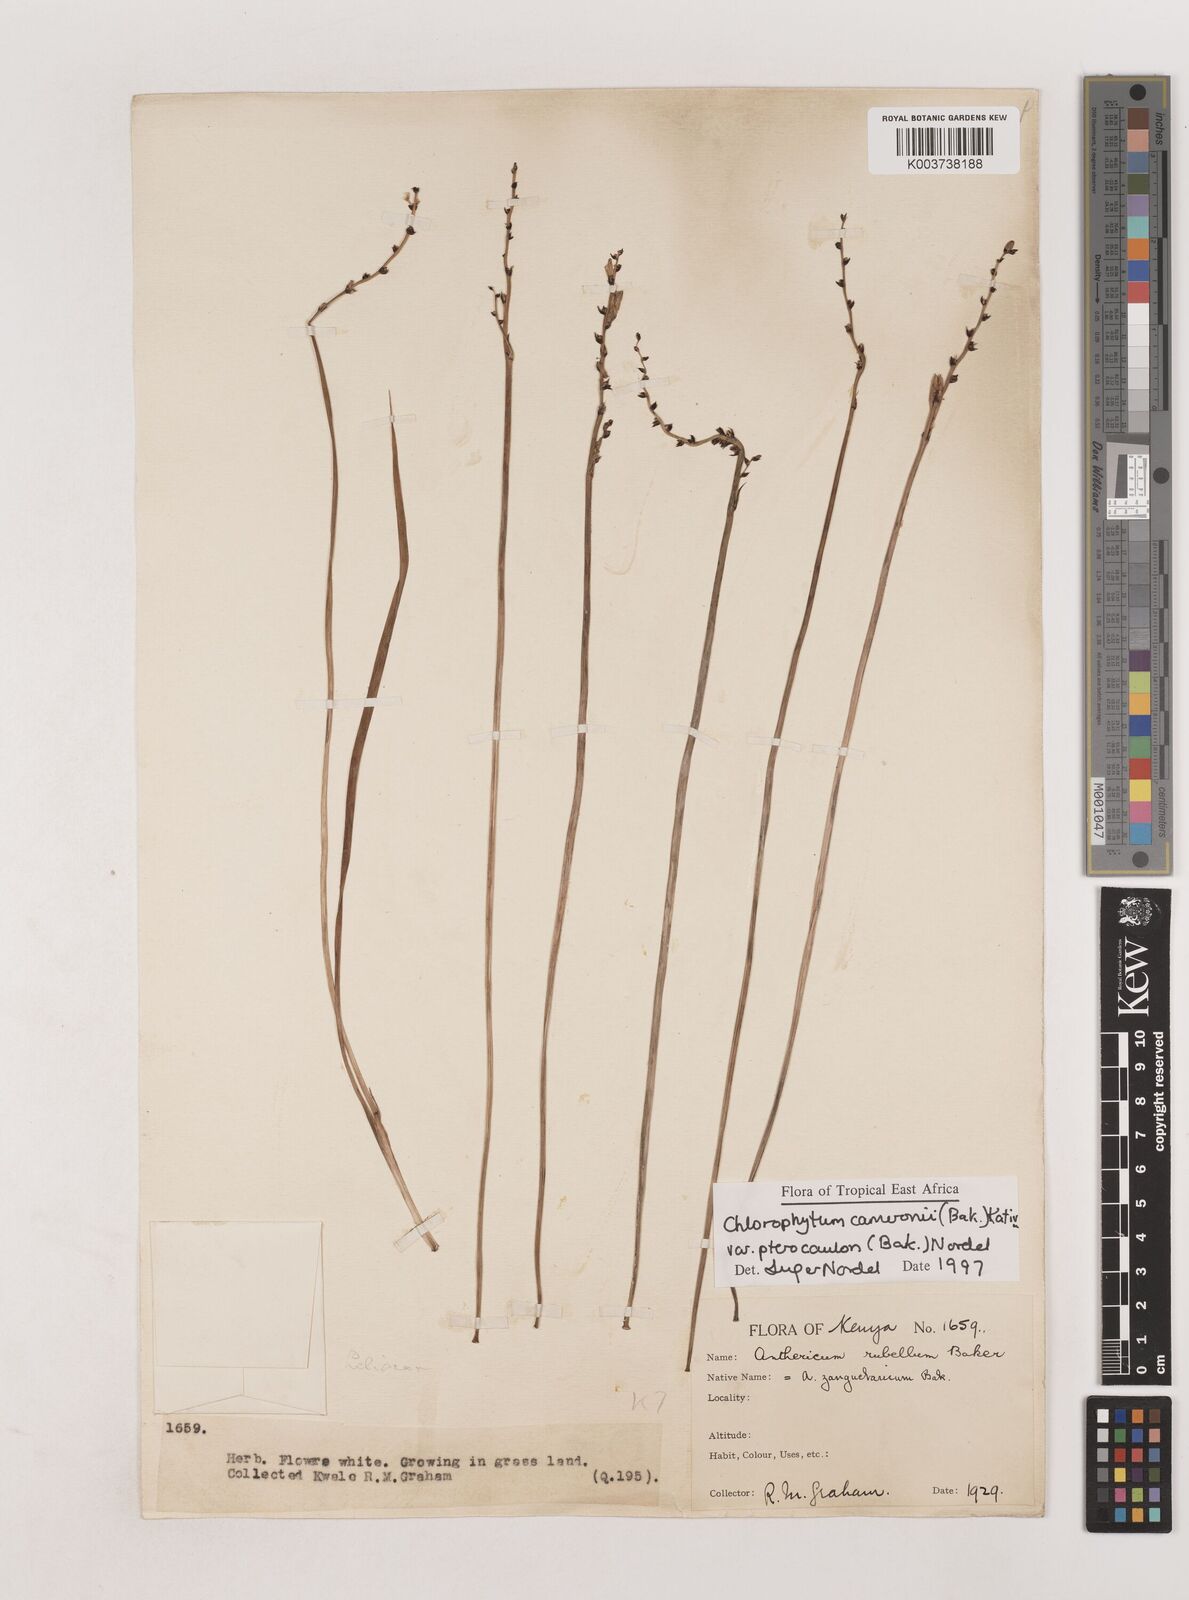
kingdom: Plantae
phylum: Tracheophyta
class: Liliopsida
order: Asparagales
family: Asparagaceae
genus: Chlorophytum
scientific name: Chlorophytum cameronii
